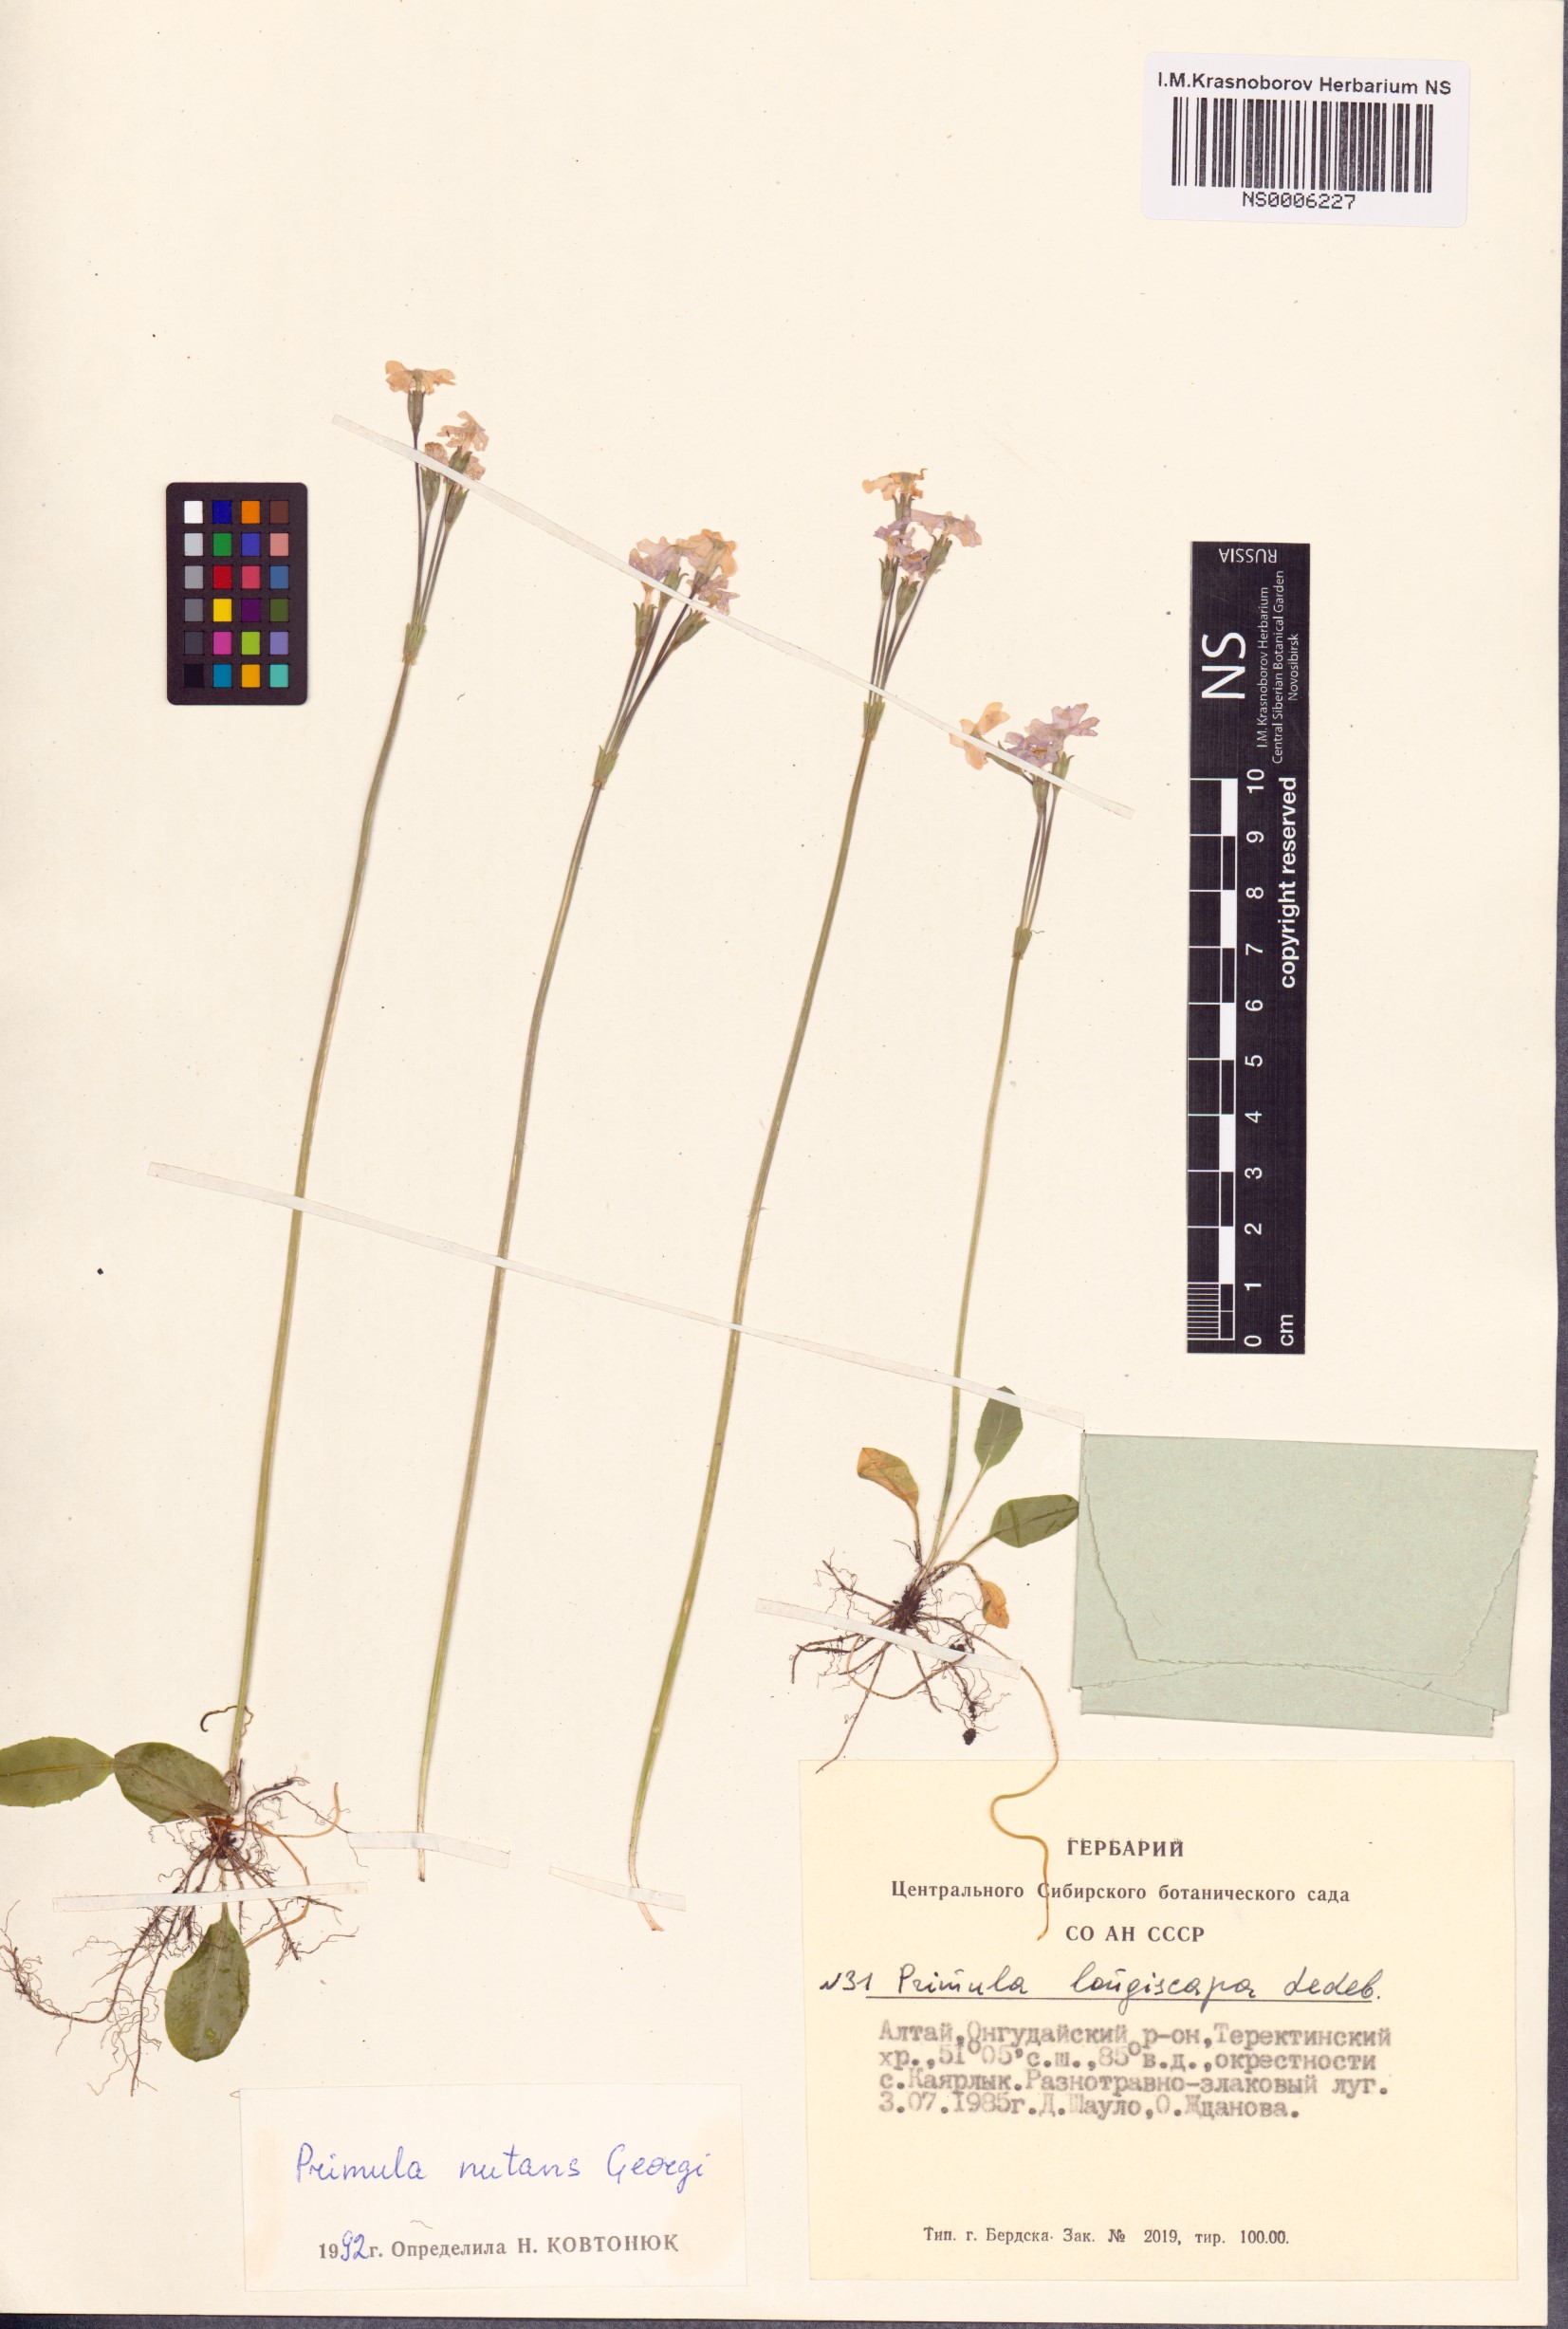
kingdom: Plantae
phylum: Tracheophyta
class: Magnoliopsida
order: Ericales
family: Primulaceae
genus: Primula
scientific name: Primula nutans
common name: Siberian primrose
